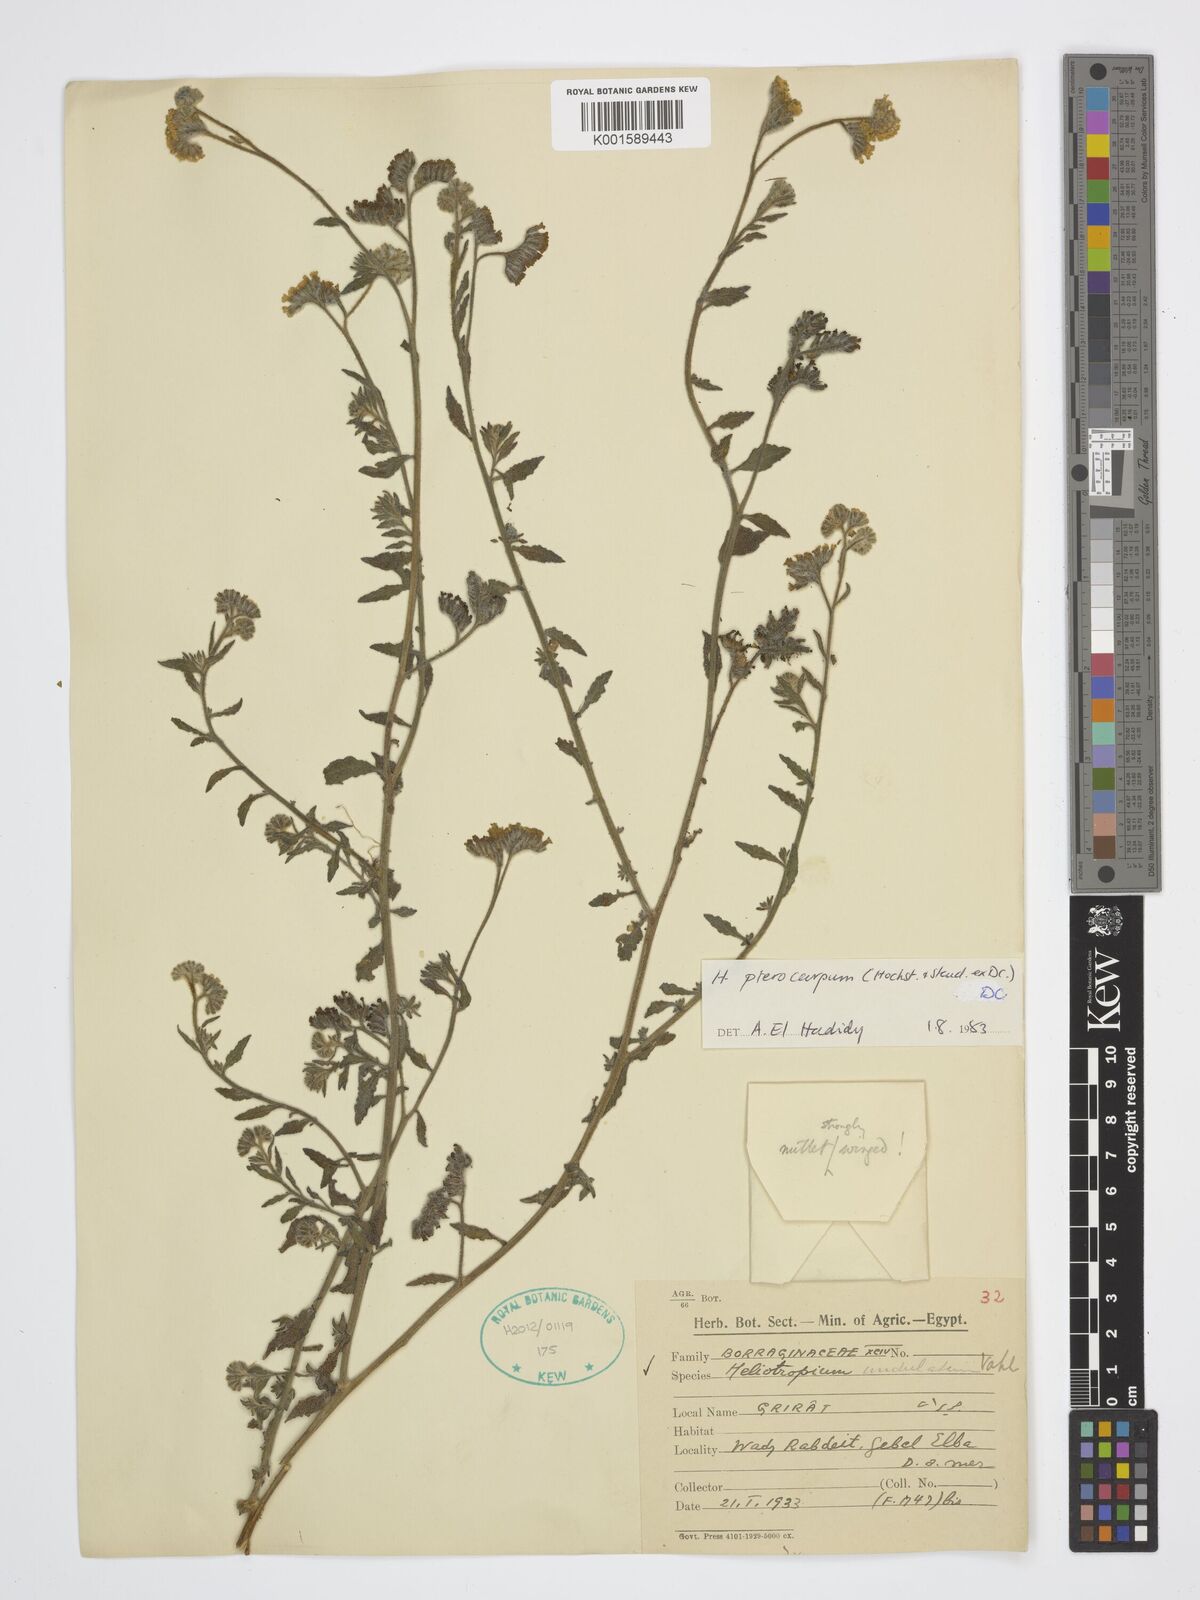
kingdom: Plantae
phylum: Tracheophyta
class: Magnoliopsida
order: Boraginales
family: Heliotropiaceae
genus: Heliotropium
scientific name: Heliotropium pterocarpum
